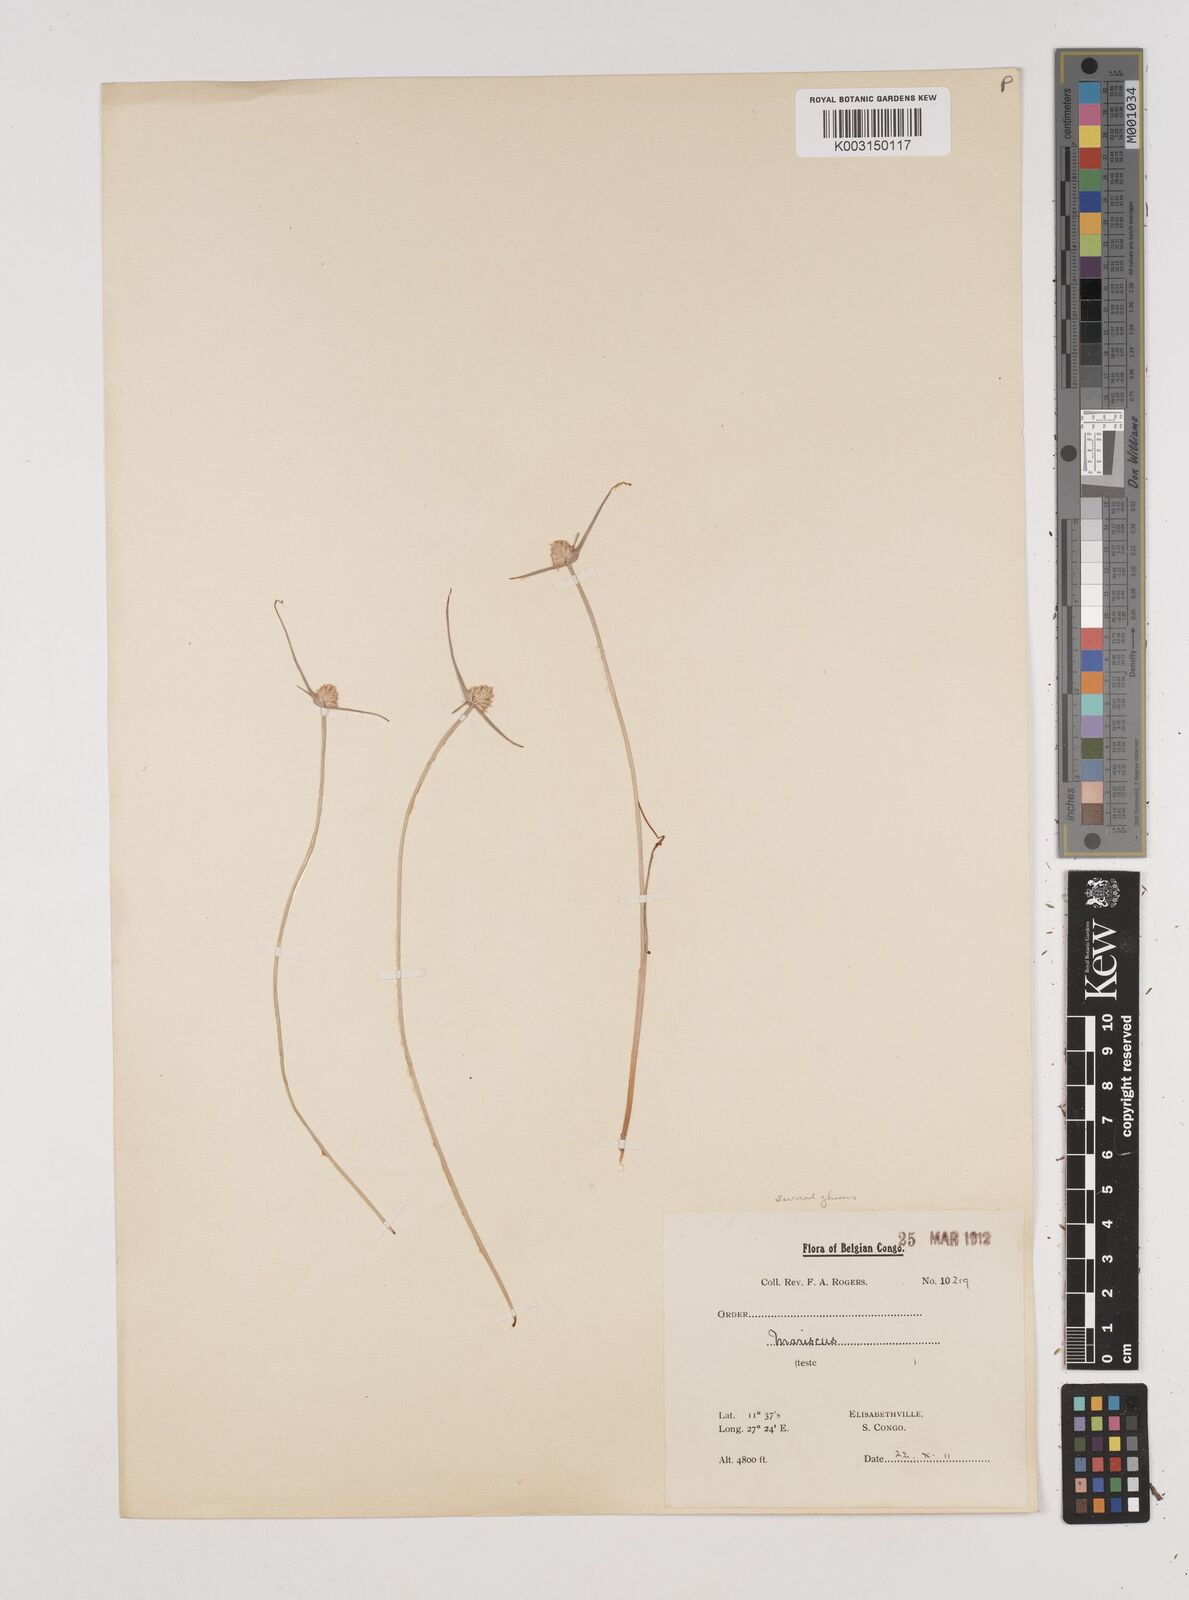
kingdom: Plantae
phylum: Tracheophyta
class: Liliopsida
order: Poales
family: Cyperaceae
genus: Cyperus
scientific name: Cyperus diurensis
